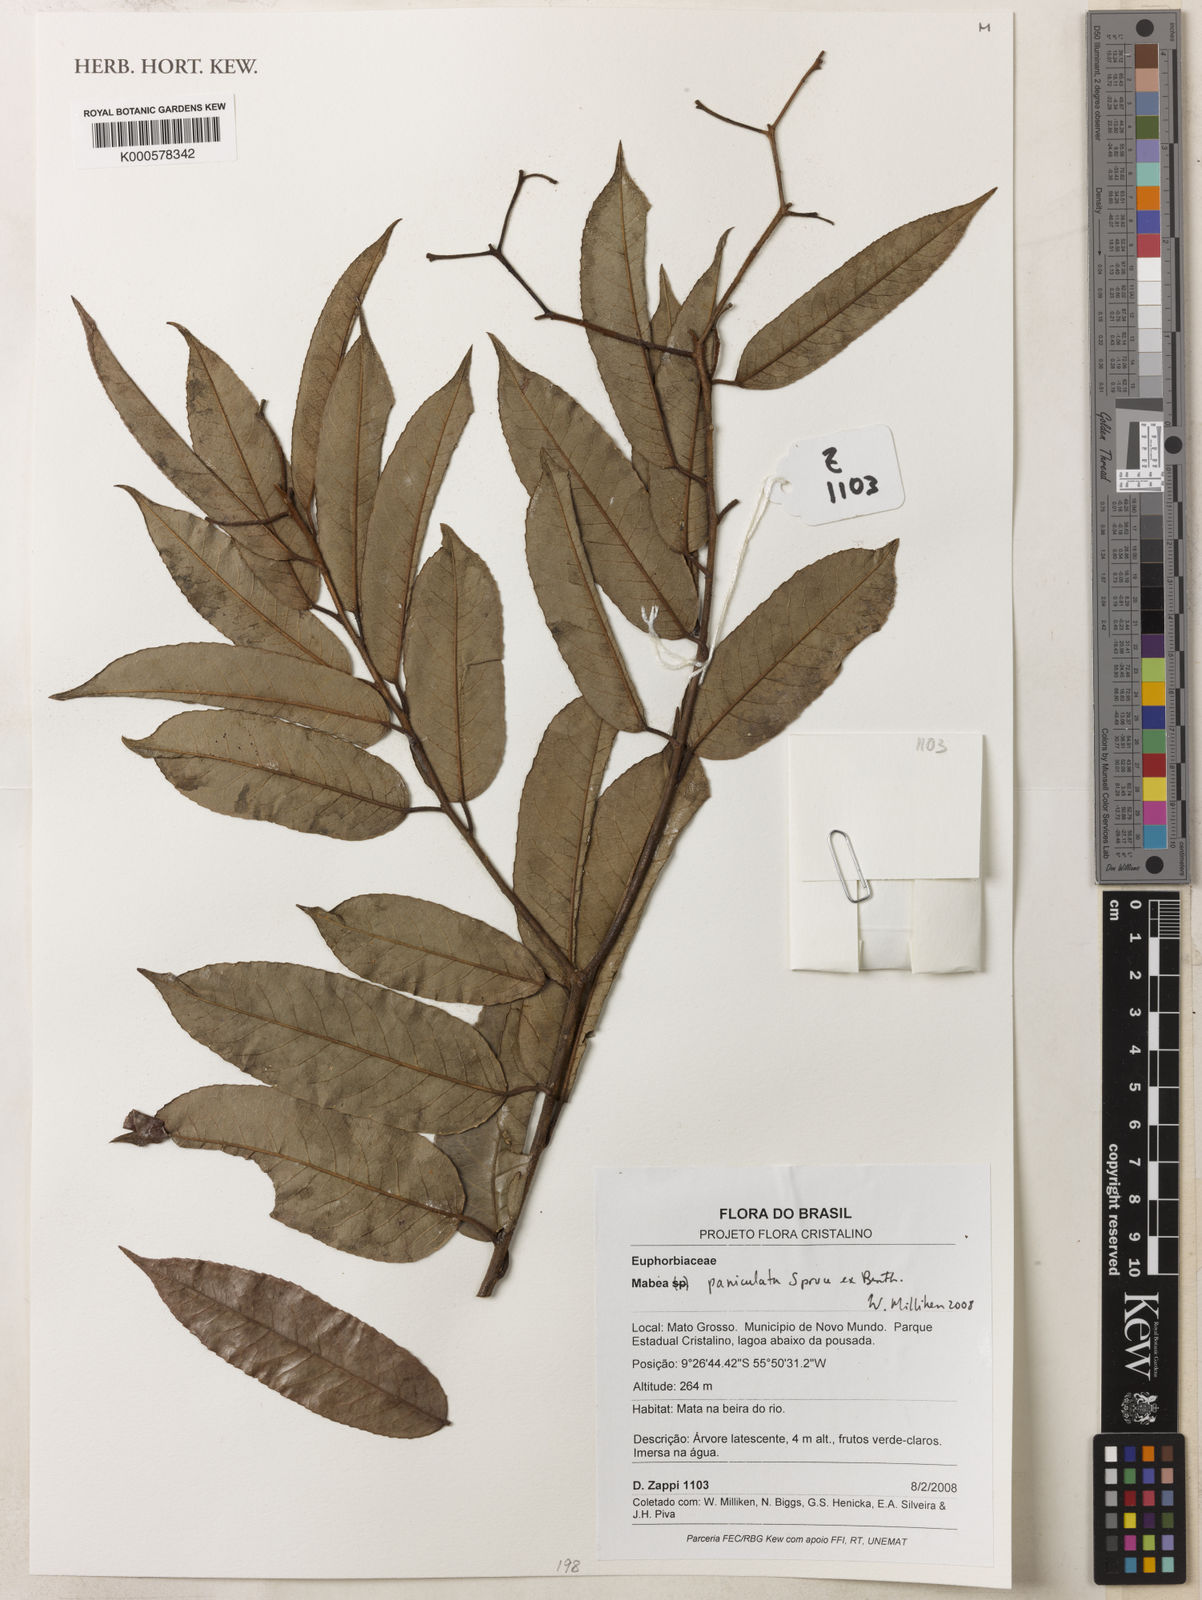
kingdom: Plantae
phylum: Tracheophyta
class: Magnoliopsida
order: Malpighiales
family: Euphorbiaceae
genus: Mabea
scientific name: Mabea paniculata
